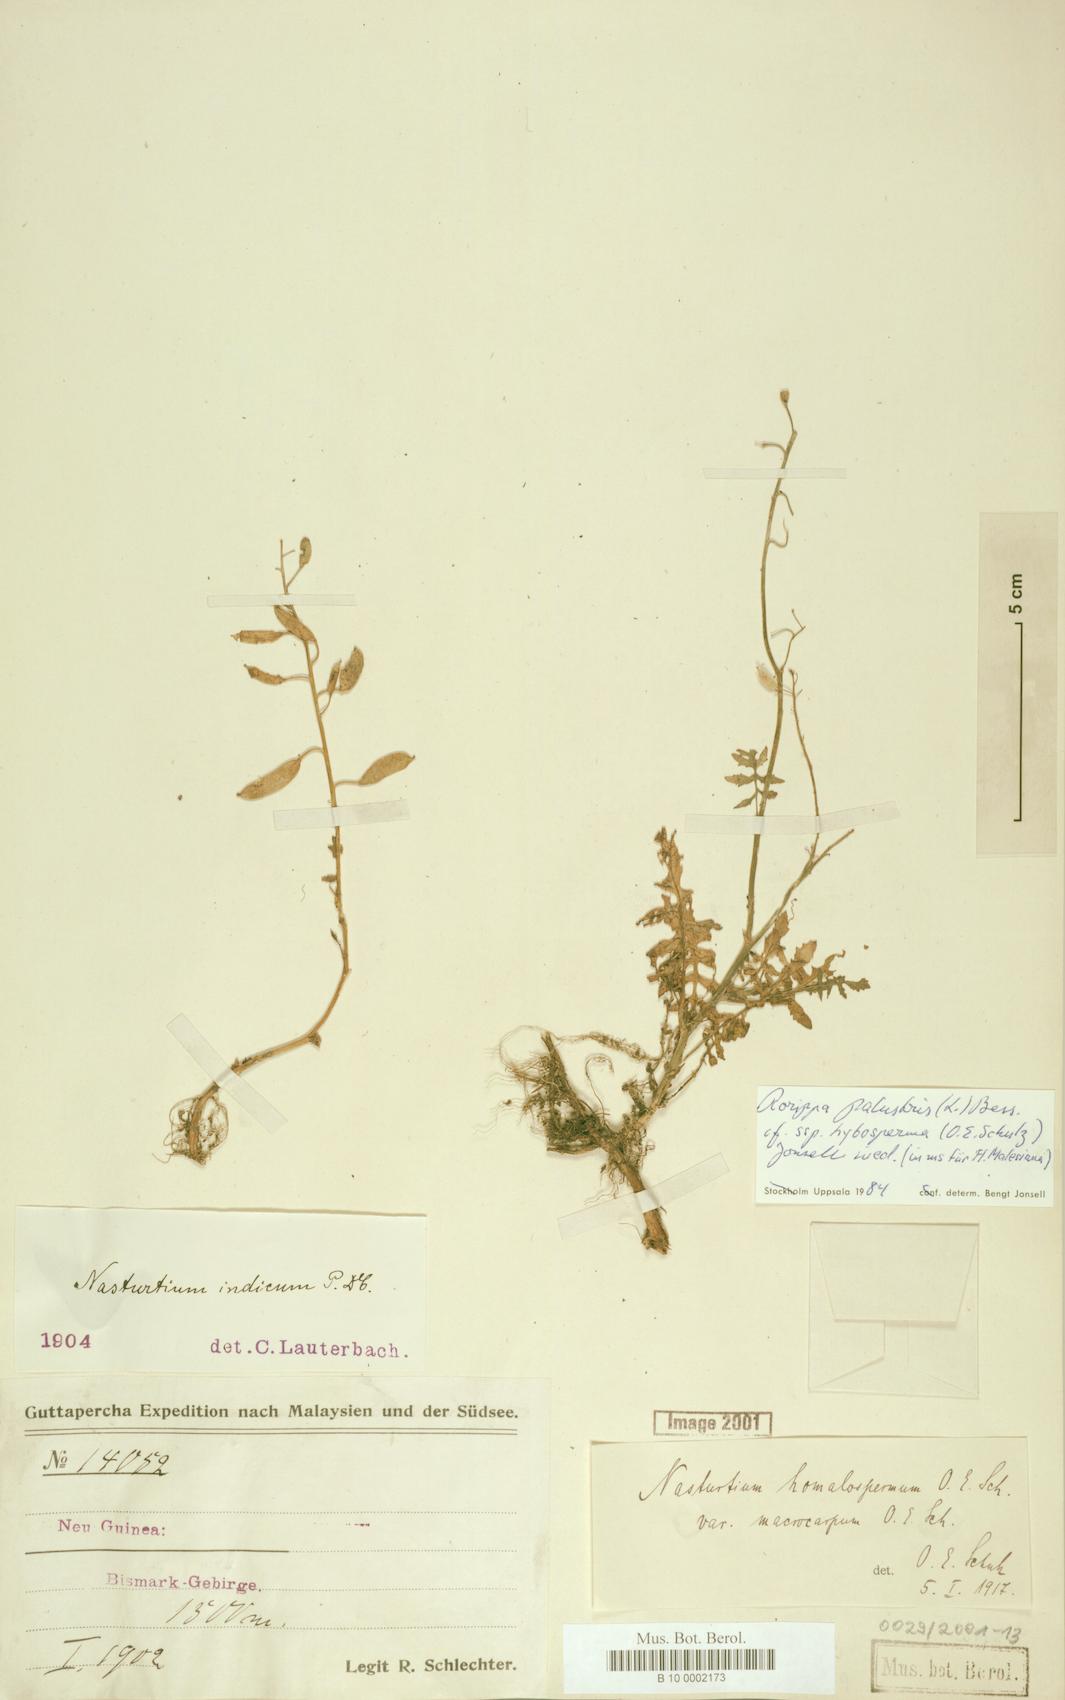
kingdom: Plantae
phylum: Tracheophyta
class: Magnoliopsida
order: Brassicales
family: Brassicaceae
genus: Rorippa
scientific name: Rorippa palustris
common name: Marsh yellow-cress
